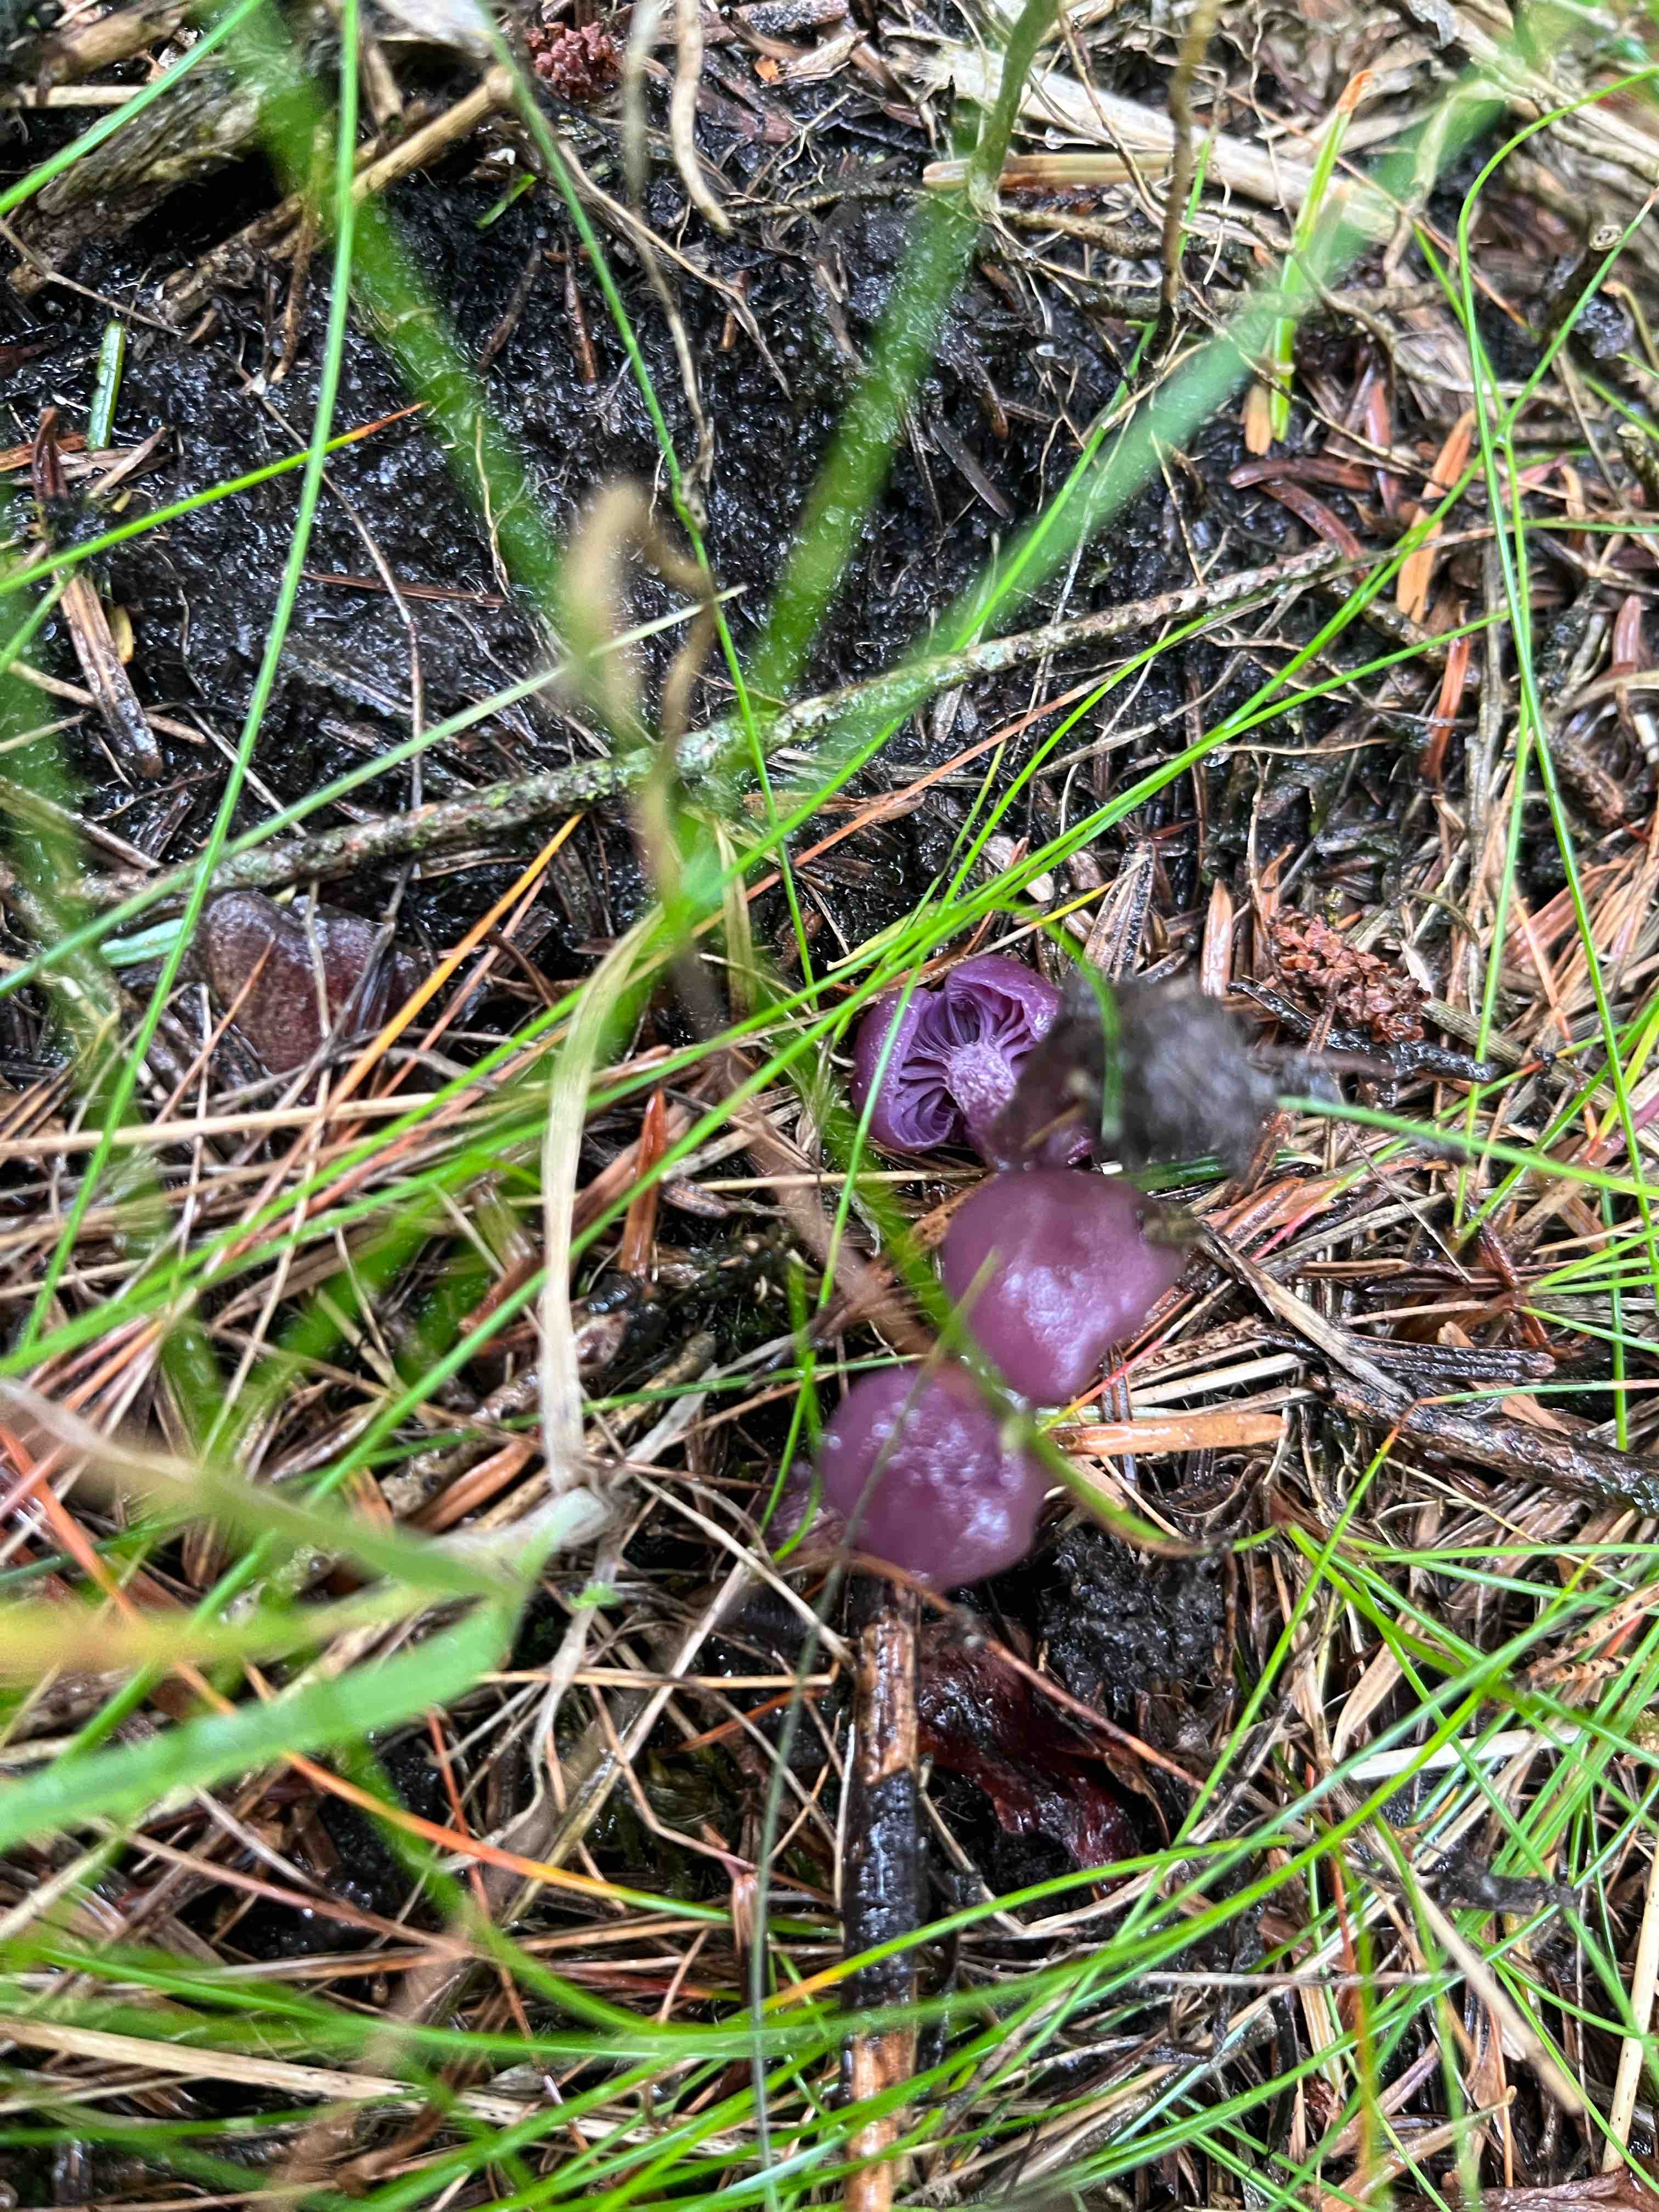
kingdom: Fungi
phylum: Basidiomycota
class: Agaricomycetes
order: Agaricales
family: Hydnangiaceae
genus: Laccaria
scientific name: Laccaria amethystina
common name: violet ametysthat
